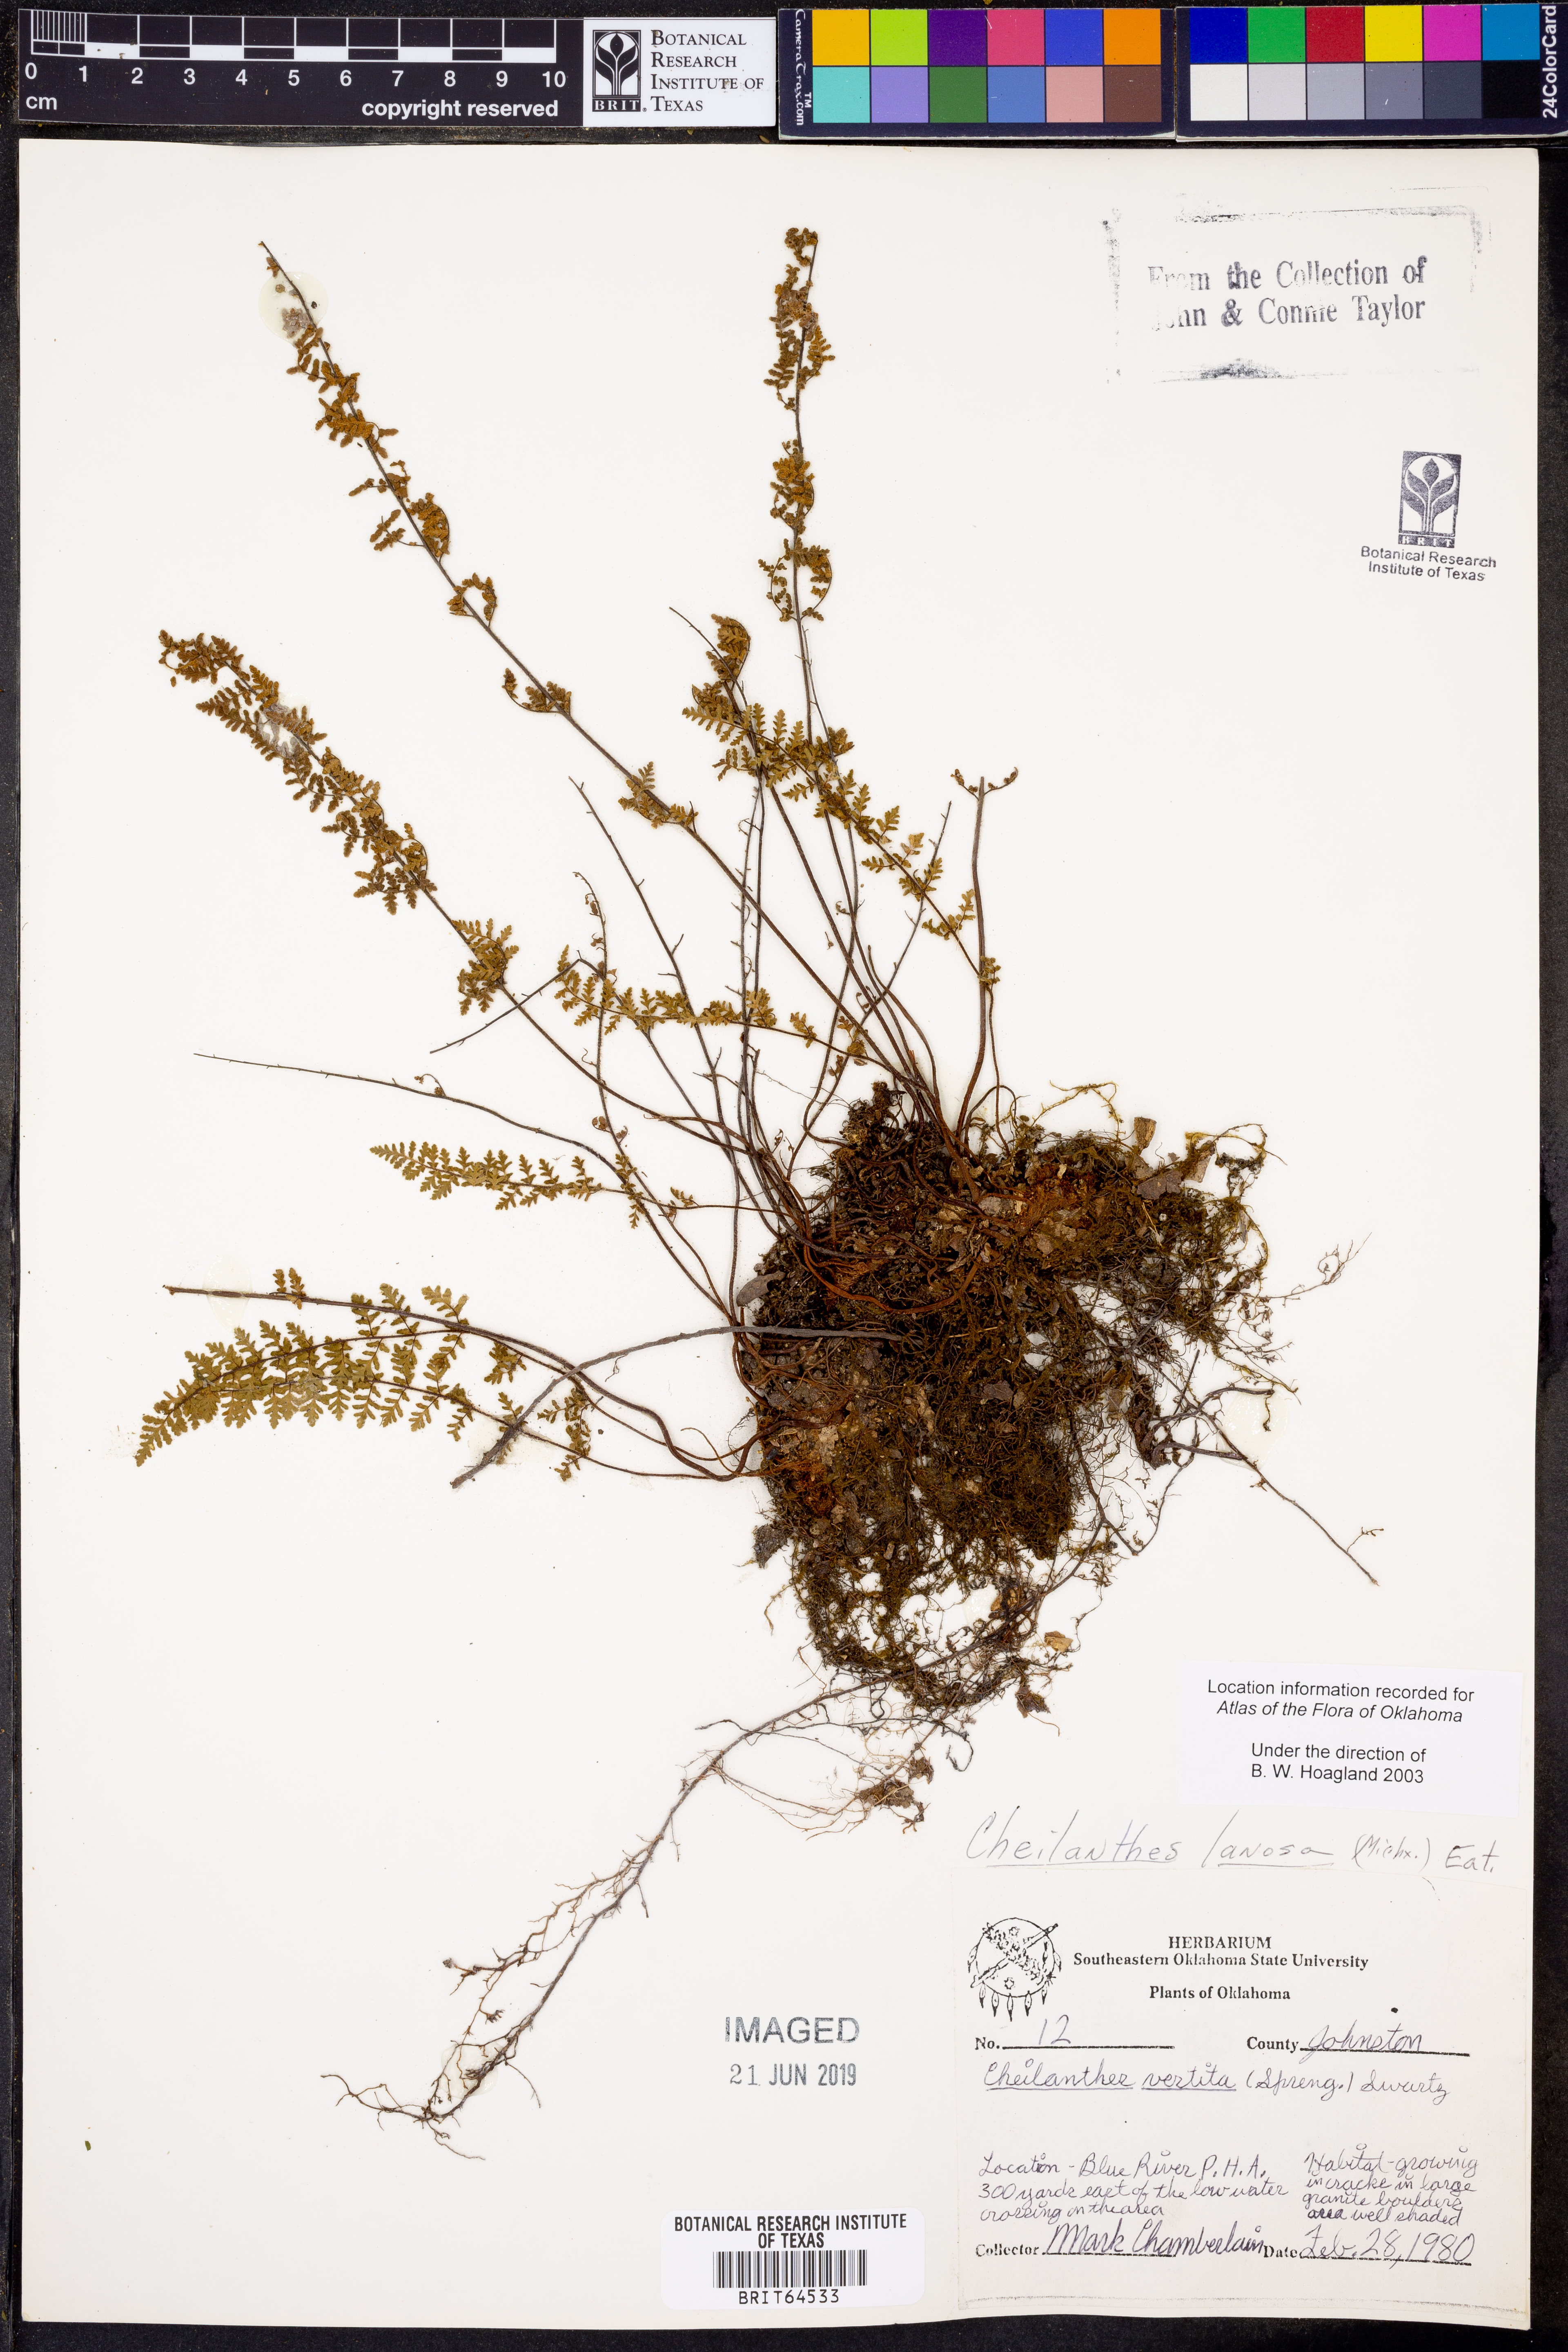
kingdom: Plantae
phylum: Tracheophyta
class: Polypodiopsida
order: Polypodiales
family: Pteridaceae
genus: Myriopteris
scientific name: Myriopteris lanosa
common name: Hairy lip fern
